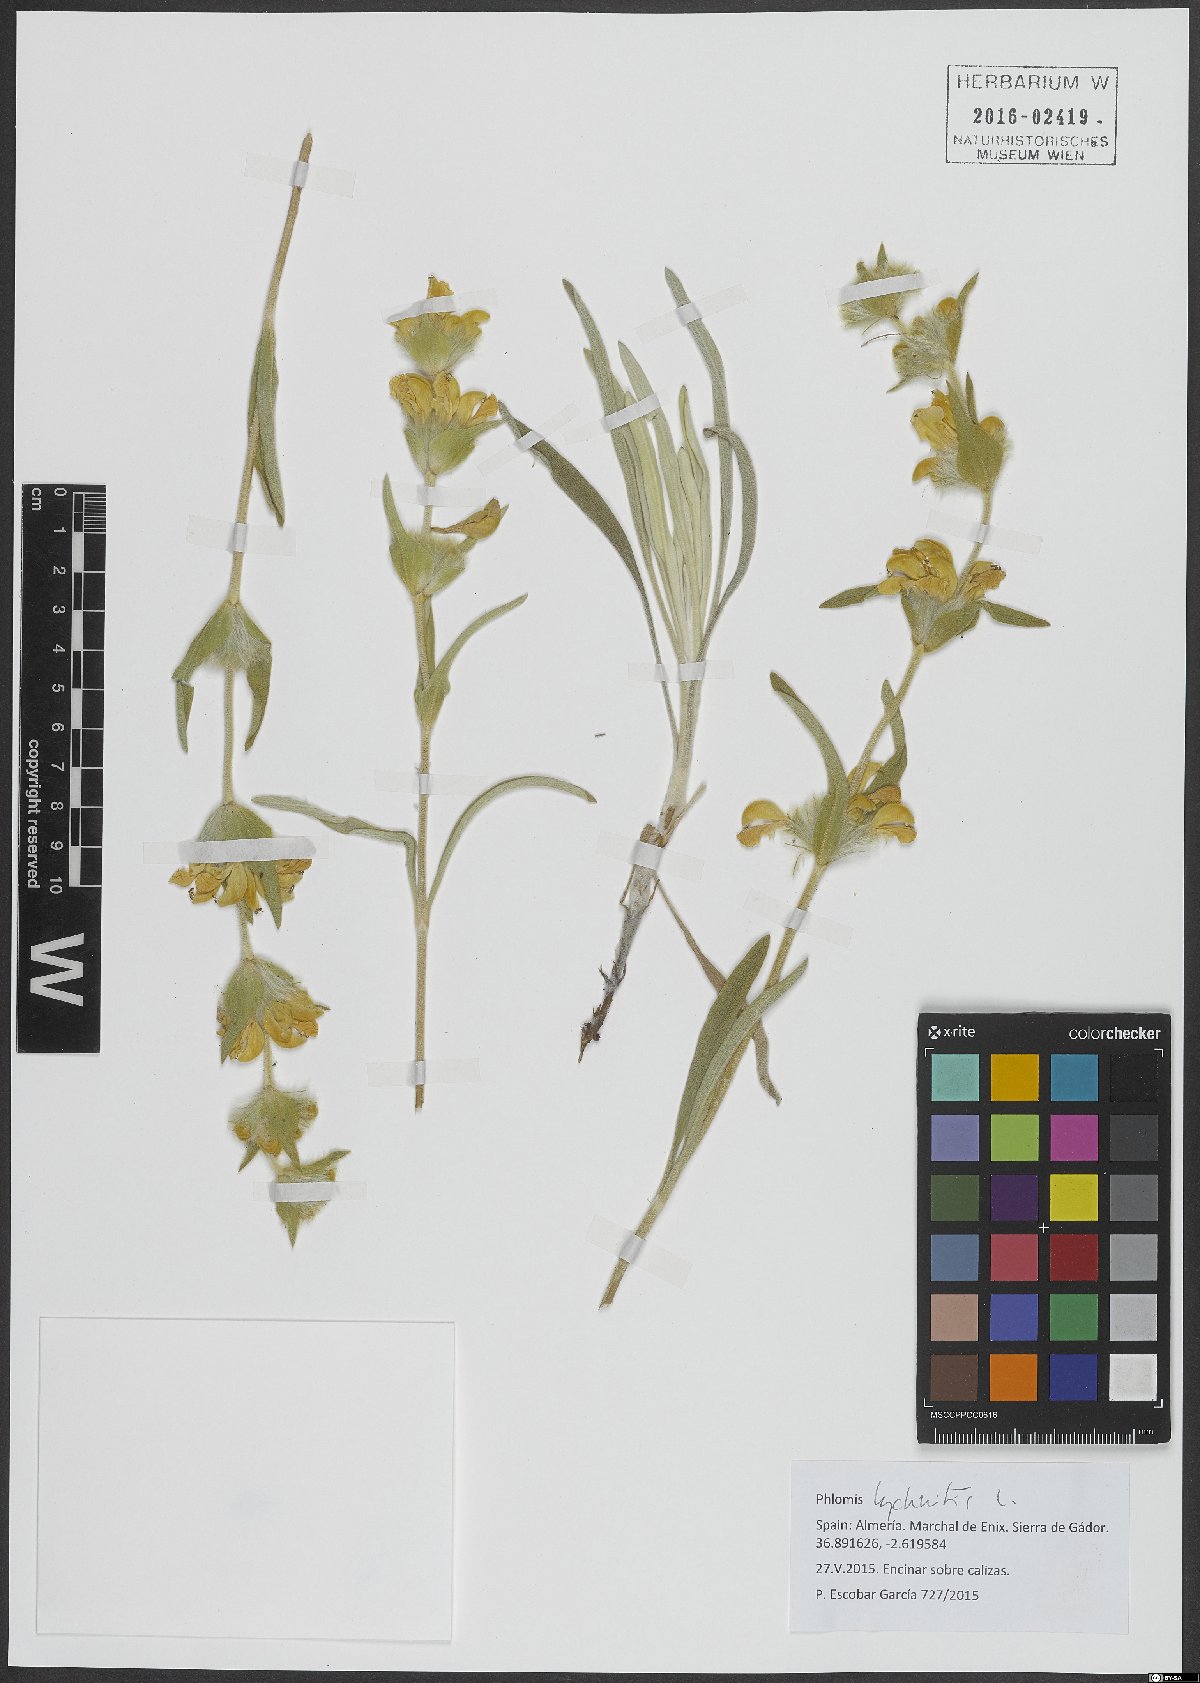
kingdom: Plantae
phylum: Tracheophyta
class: Magnoliopsida
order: Lamiales
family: Lamiaceae
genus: Phlomis
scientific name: Phlomis lychnitis
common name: Lampwickplant
